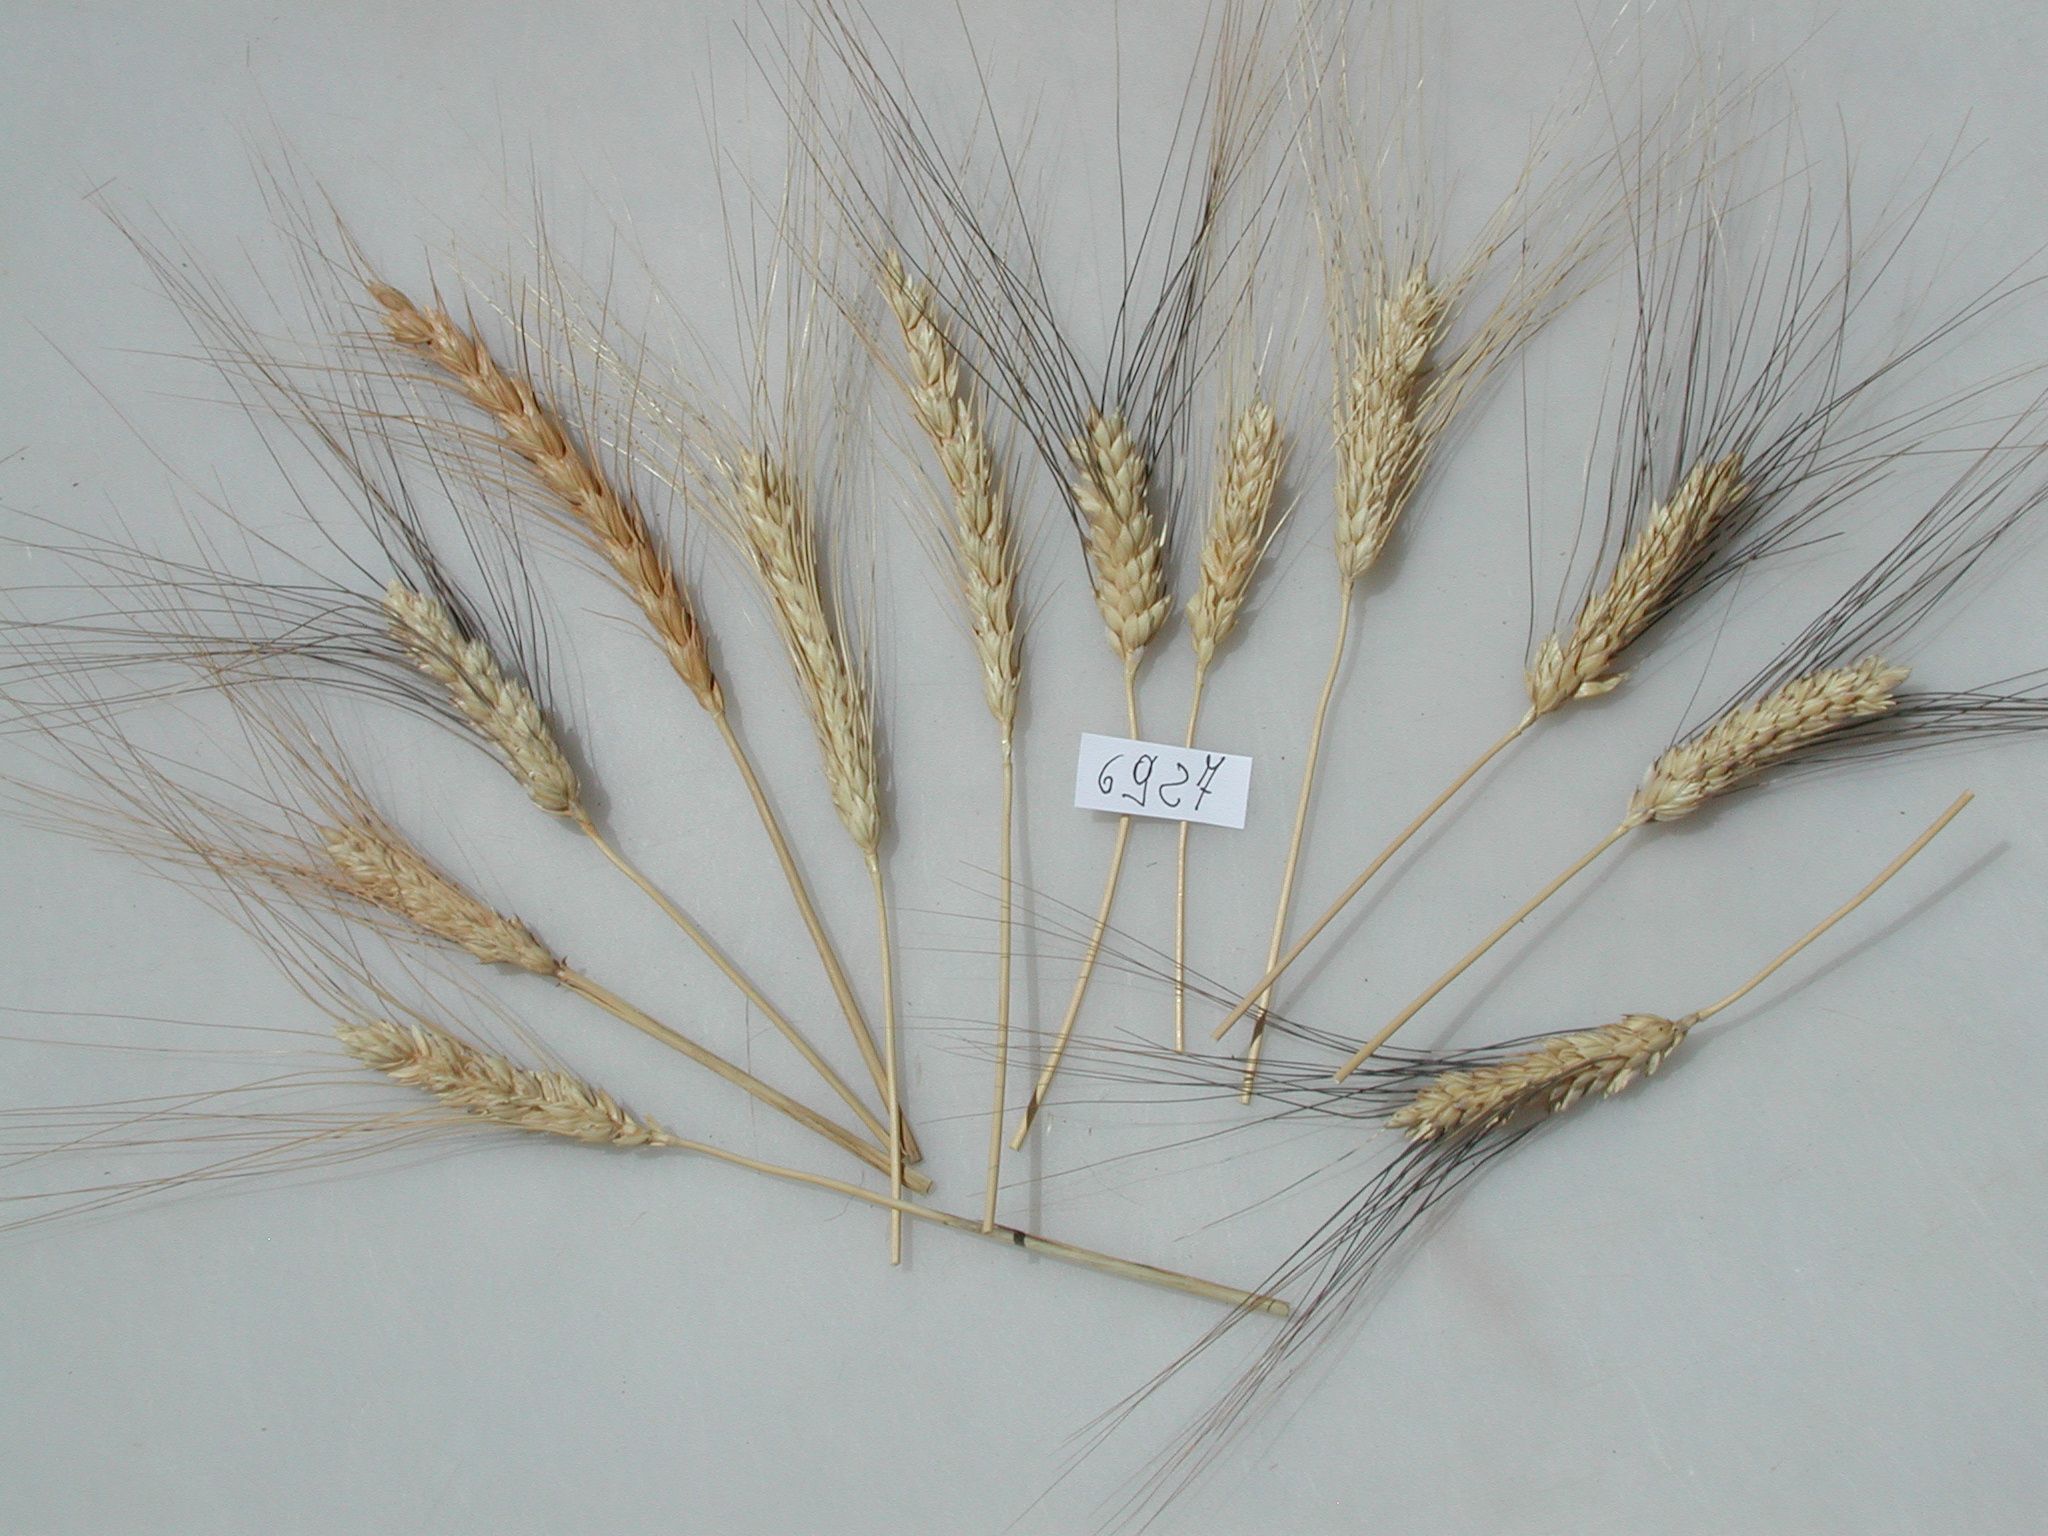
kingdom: Plantae
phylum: Tracheophyta
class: Liliopsida
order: Poales
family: Poaceae
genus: Triticum
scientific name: Triticum turgidum
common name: Wheat
